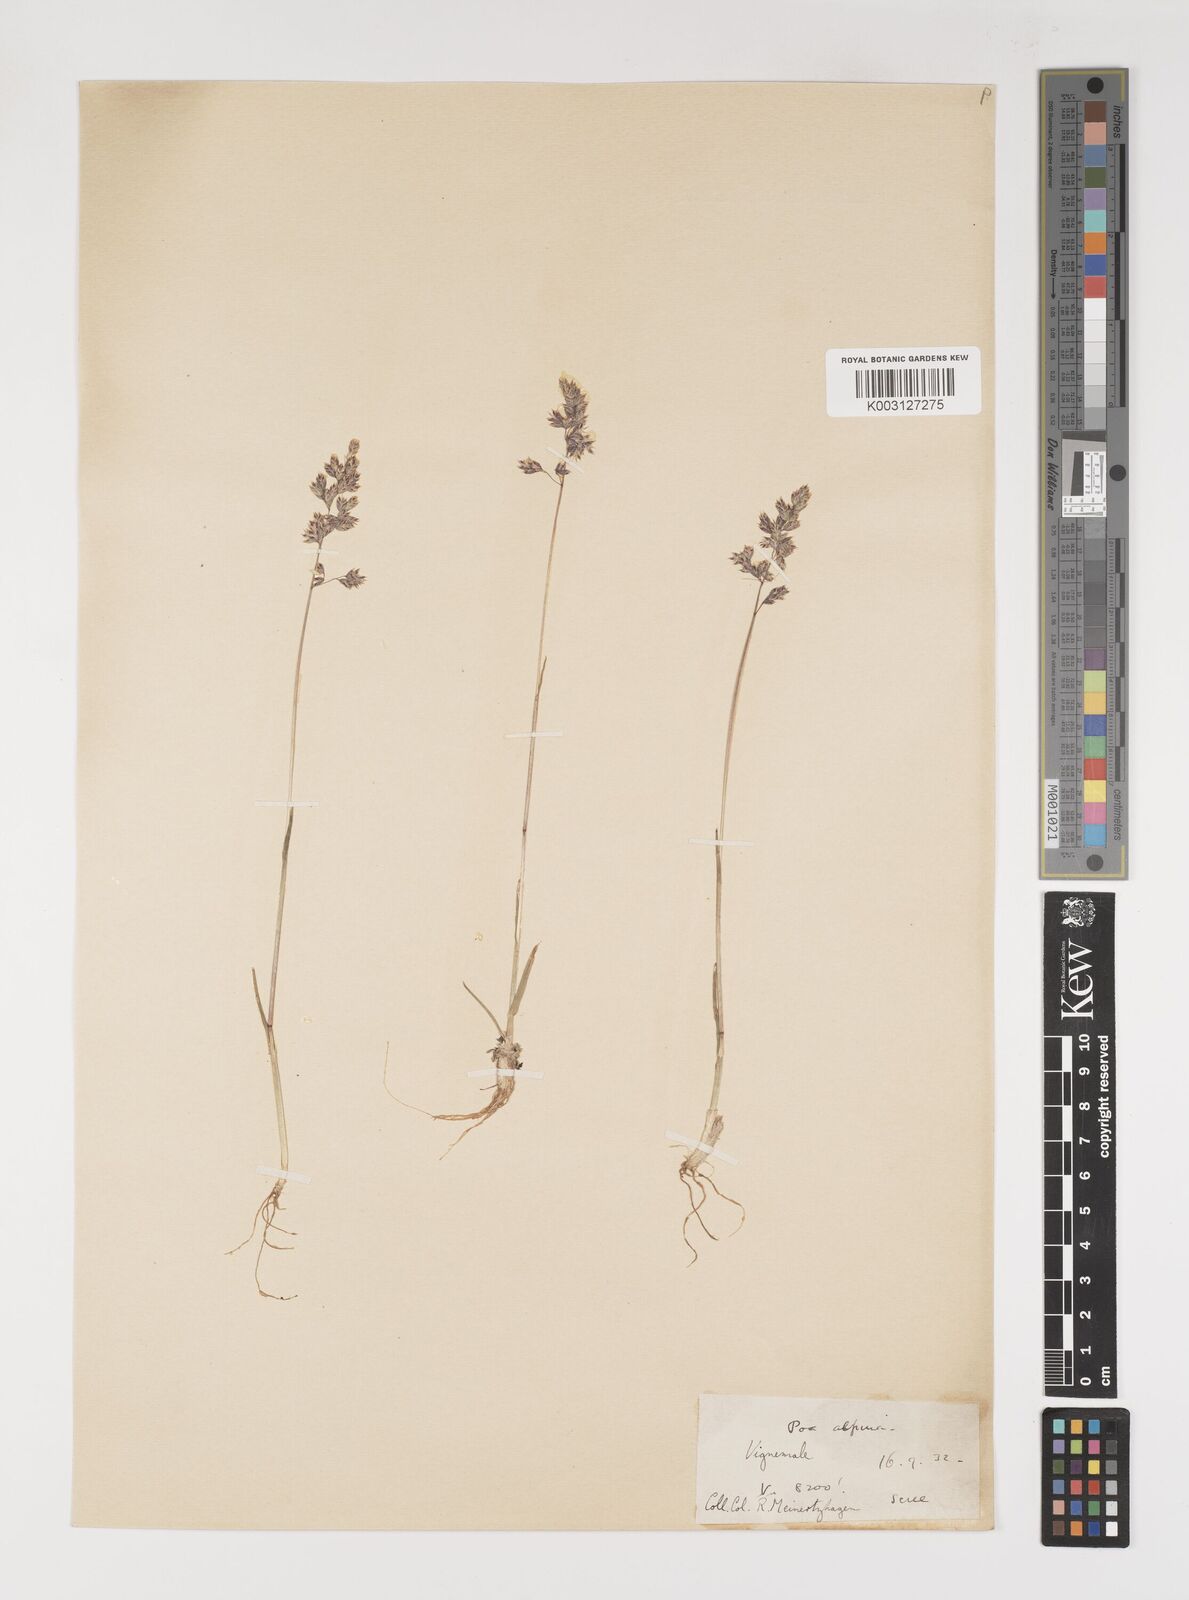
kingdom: Plantae
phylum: Tracheophyta
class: Liliopsida
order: Poales
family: Poaceae
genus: Poa
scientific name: Poa alpina
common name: Alpine bluegrass
